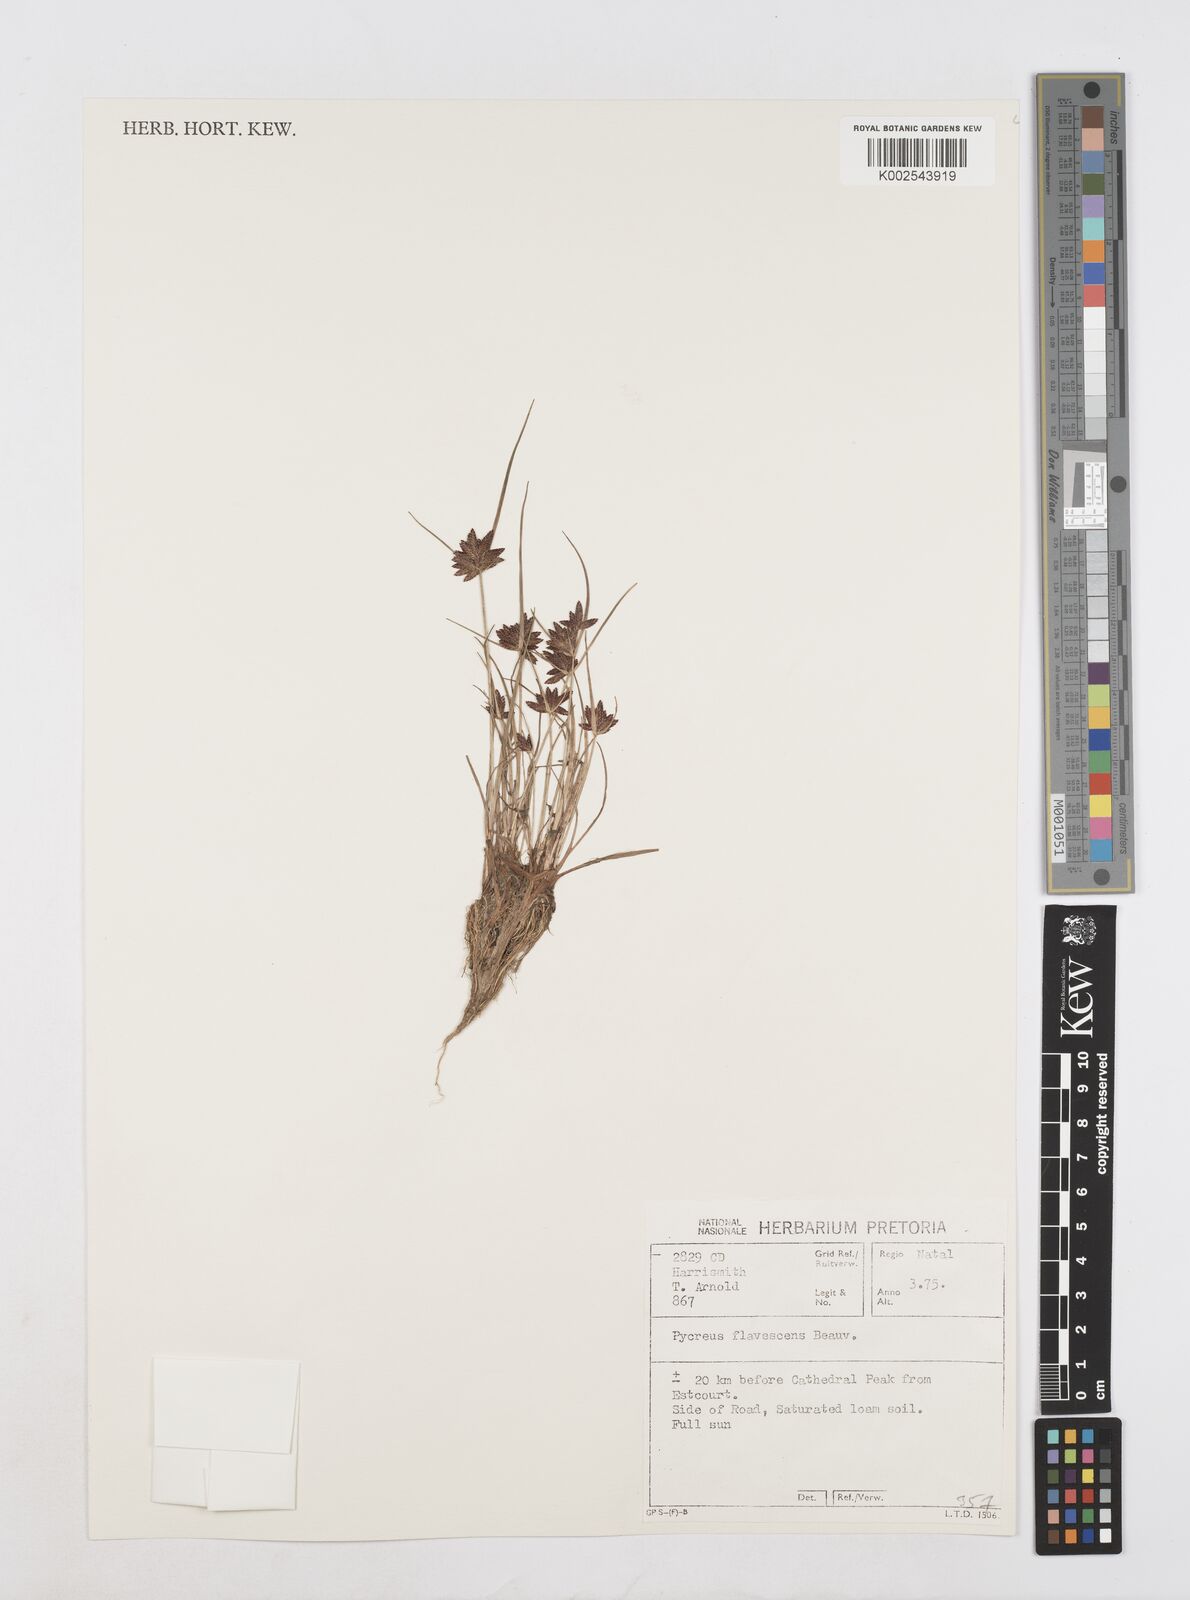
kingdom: Plantae
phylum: Tracheophyta
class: Liliopsida
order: Poales
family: Cyperaceae
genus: Cyperus
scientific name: Cyperus flavescens
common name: Yellow galingale
